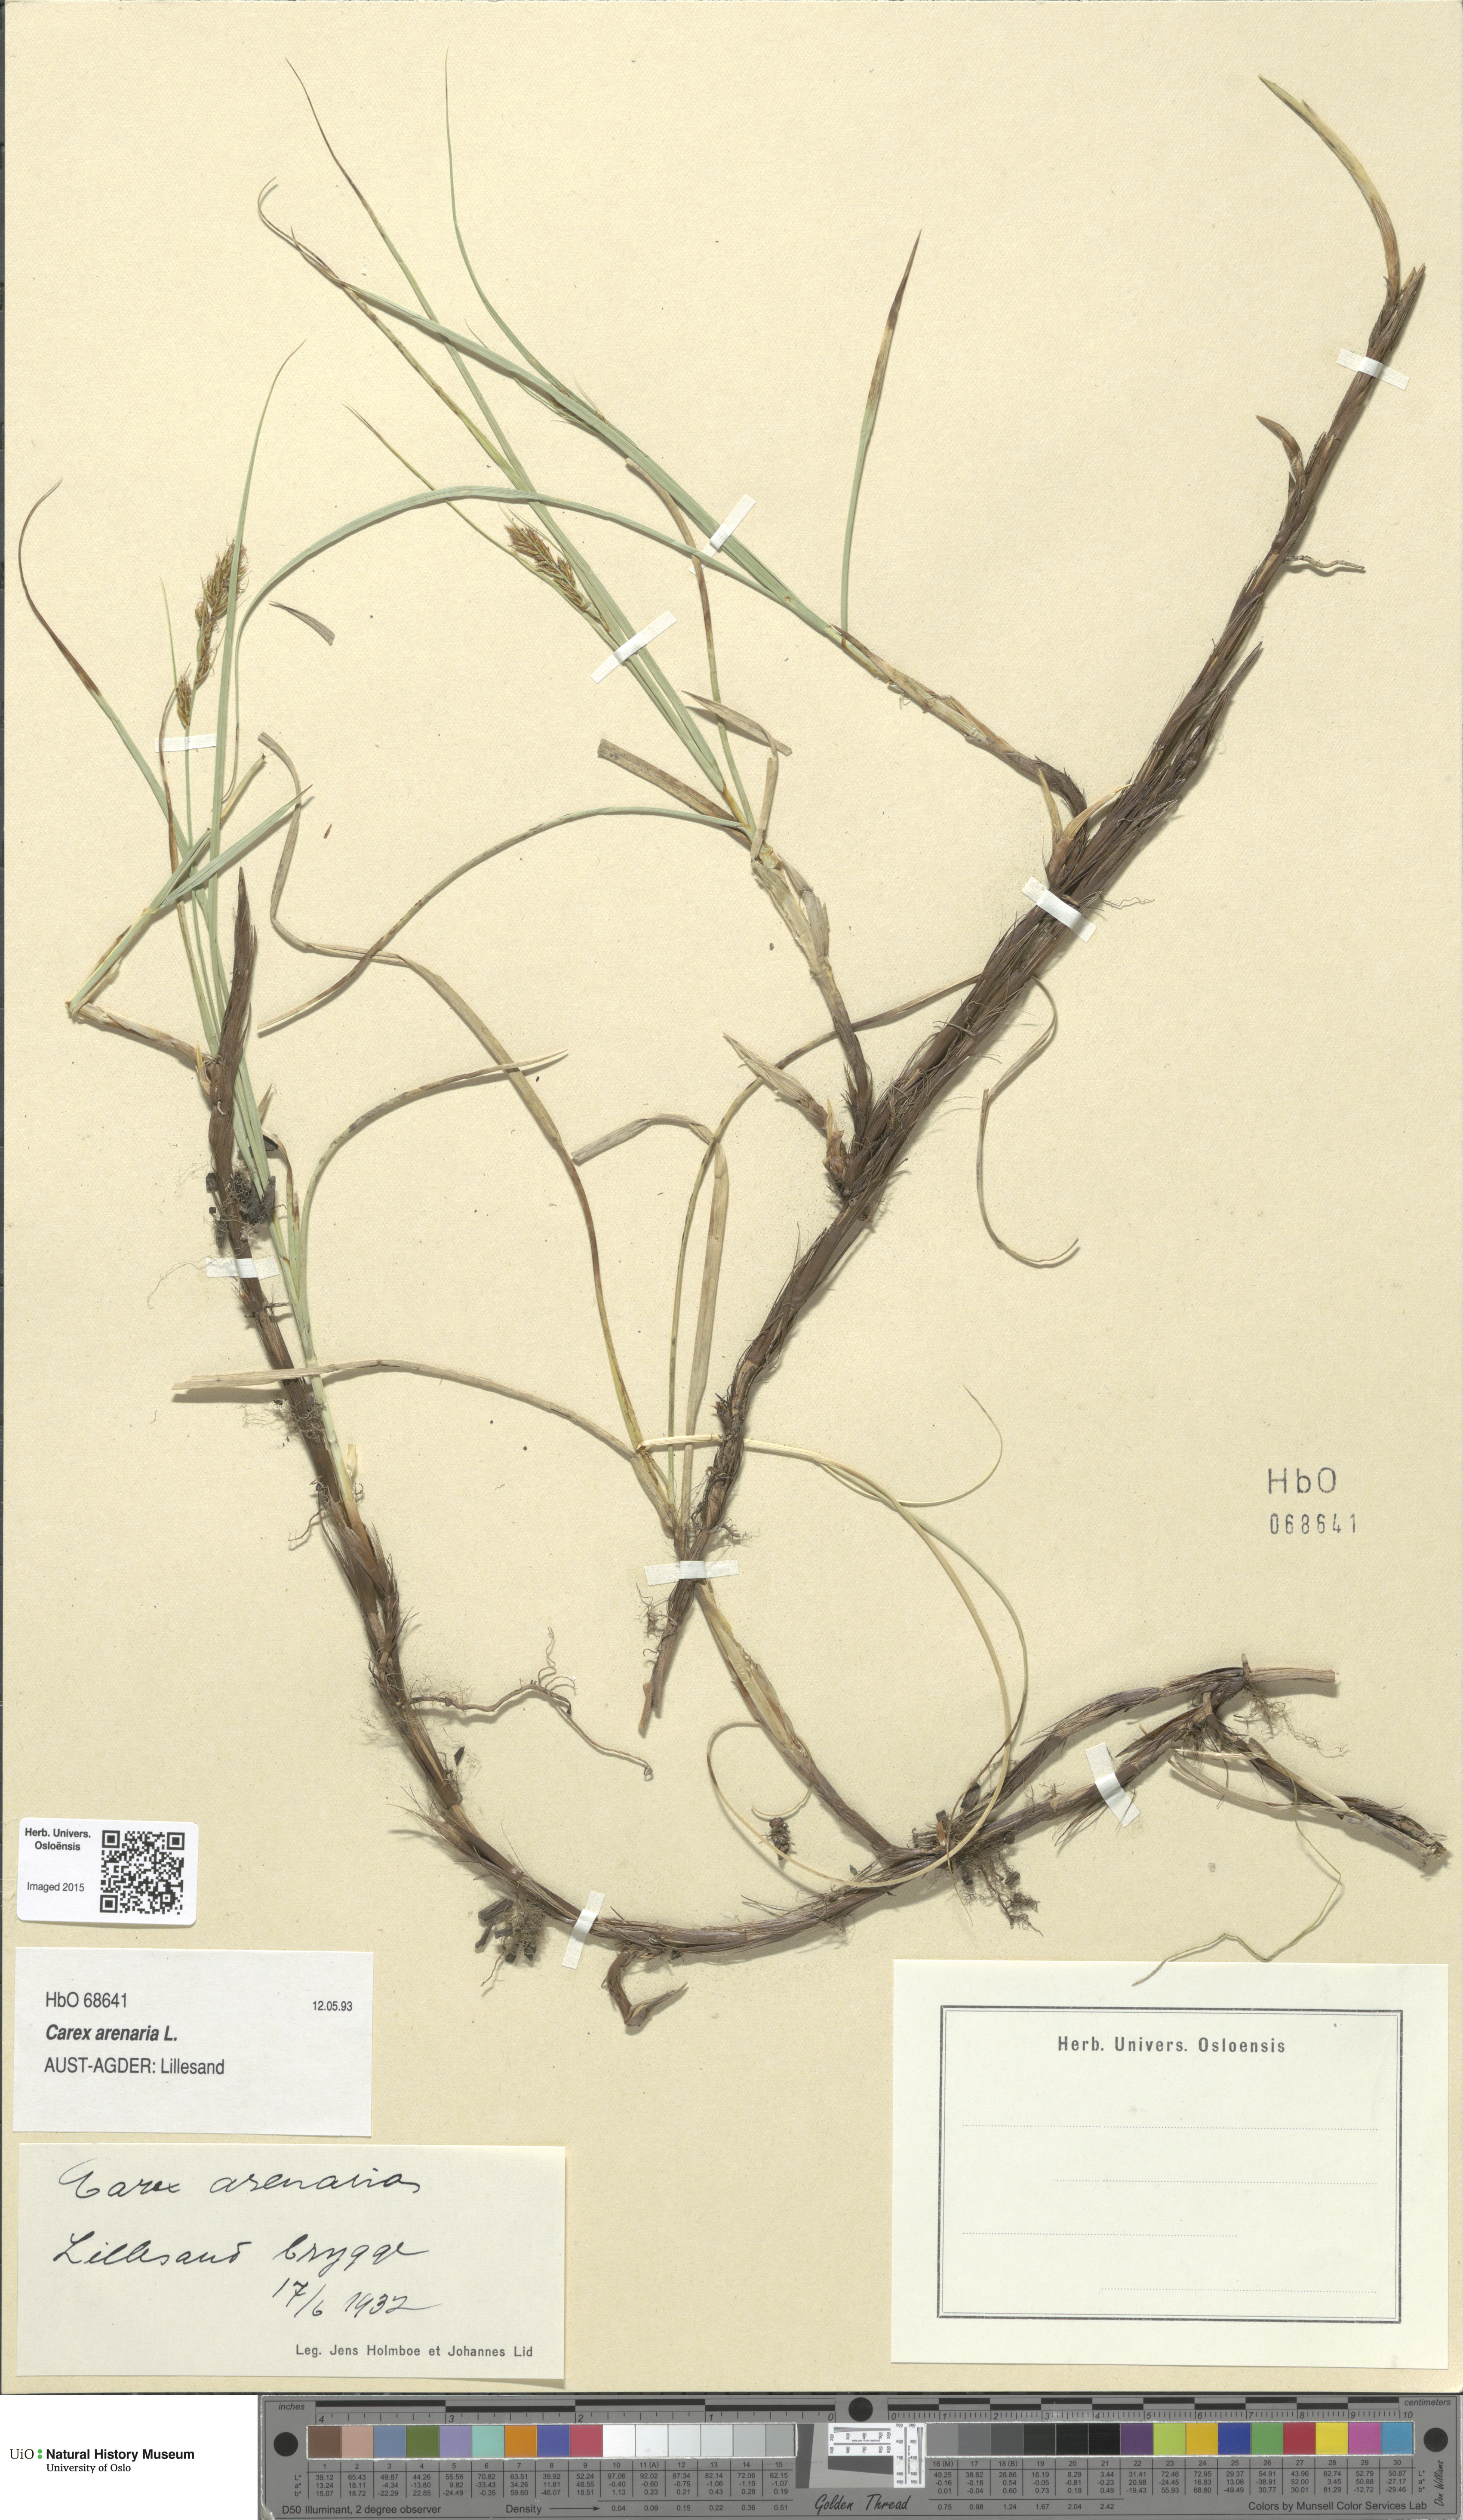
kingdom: Plantae
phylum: Tracheophyta
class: Liliopsida
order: Poales
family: Cyperaceae
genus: Carex
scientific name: Carex arenaria
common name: Sand sedge
